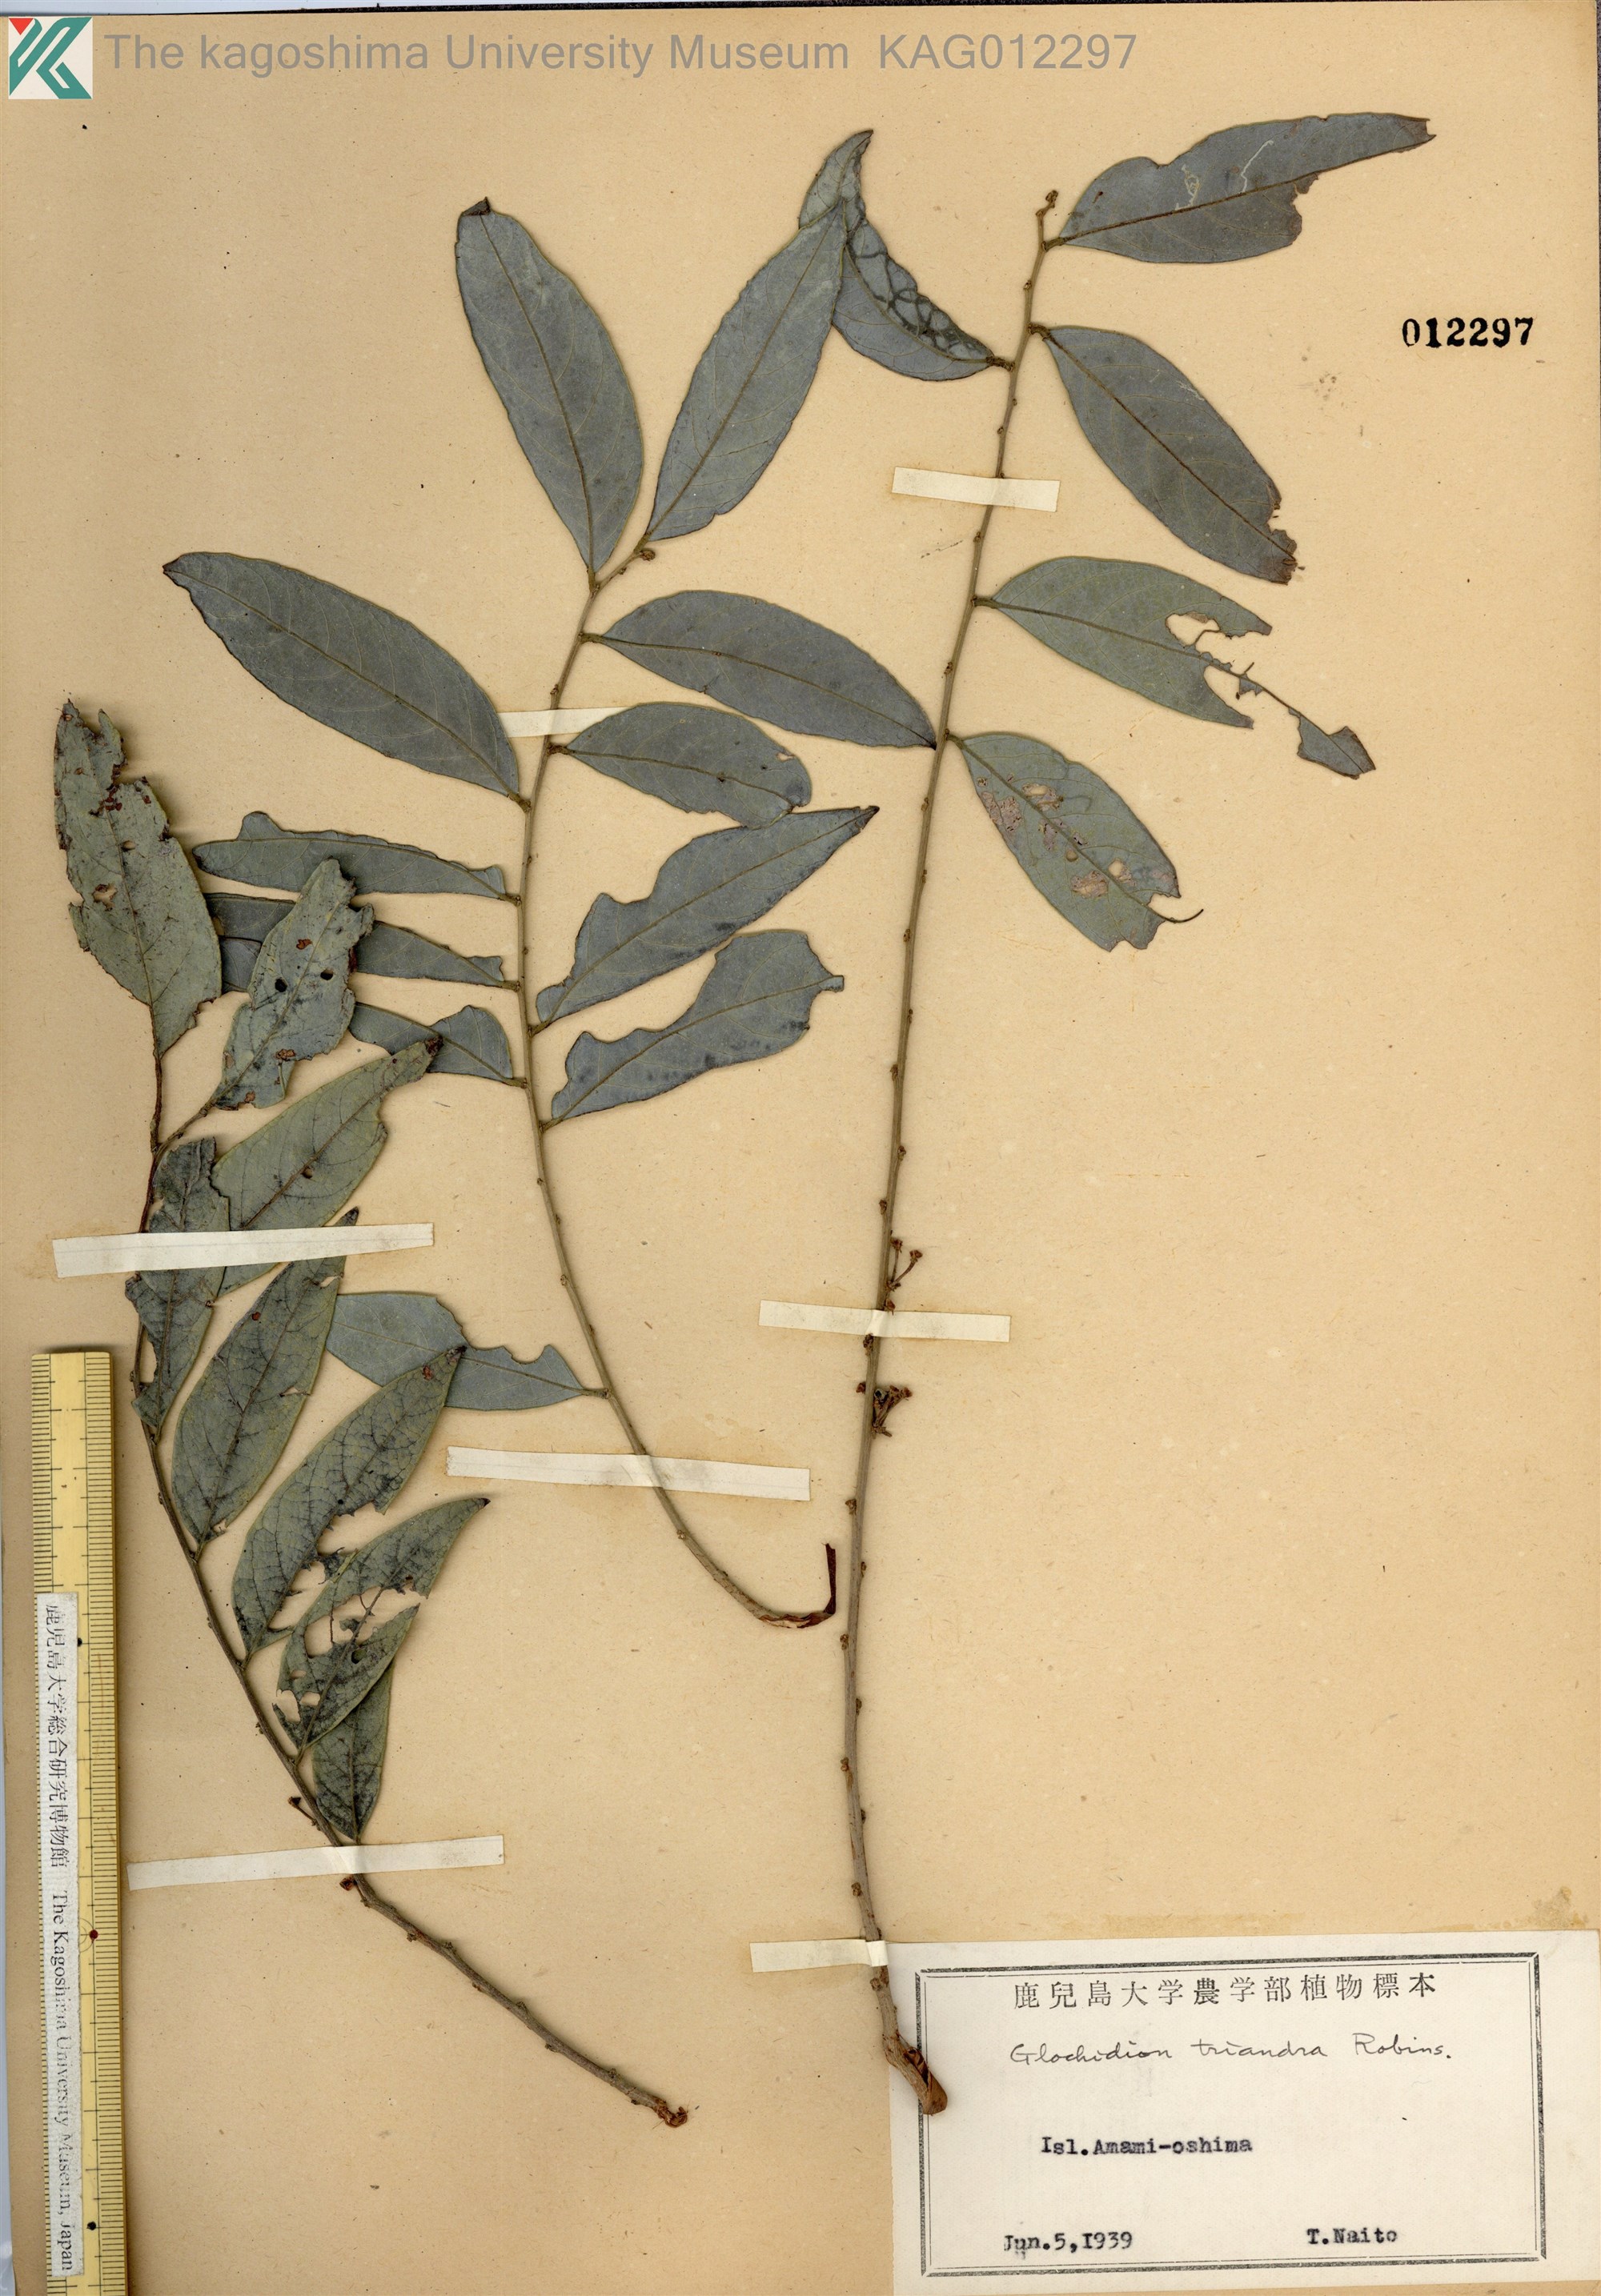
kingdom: Plantae
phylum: Tracheophyta
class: Magnoliopsida
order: Malpighiales
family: Phyllanthaceae
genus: Glochidion
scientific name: Glochidion triandrum
